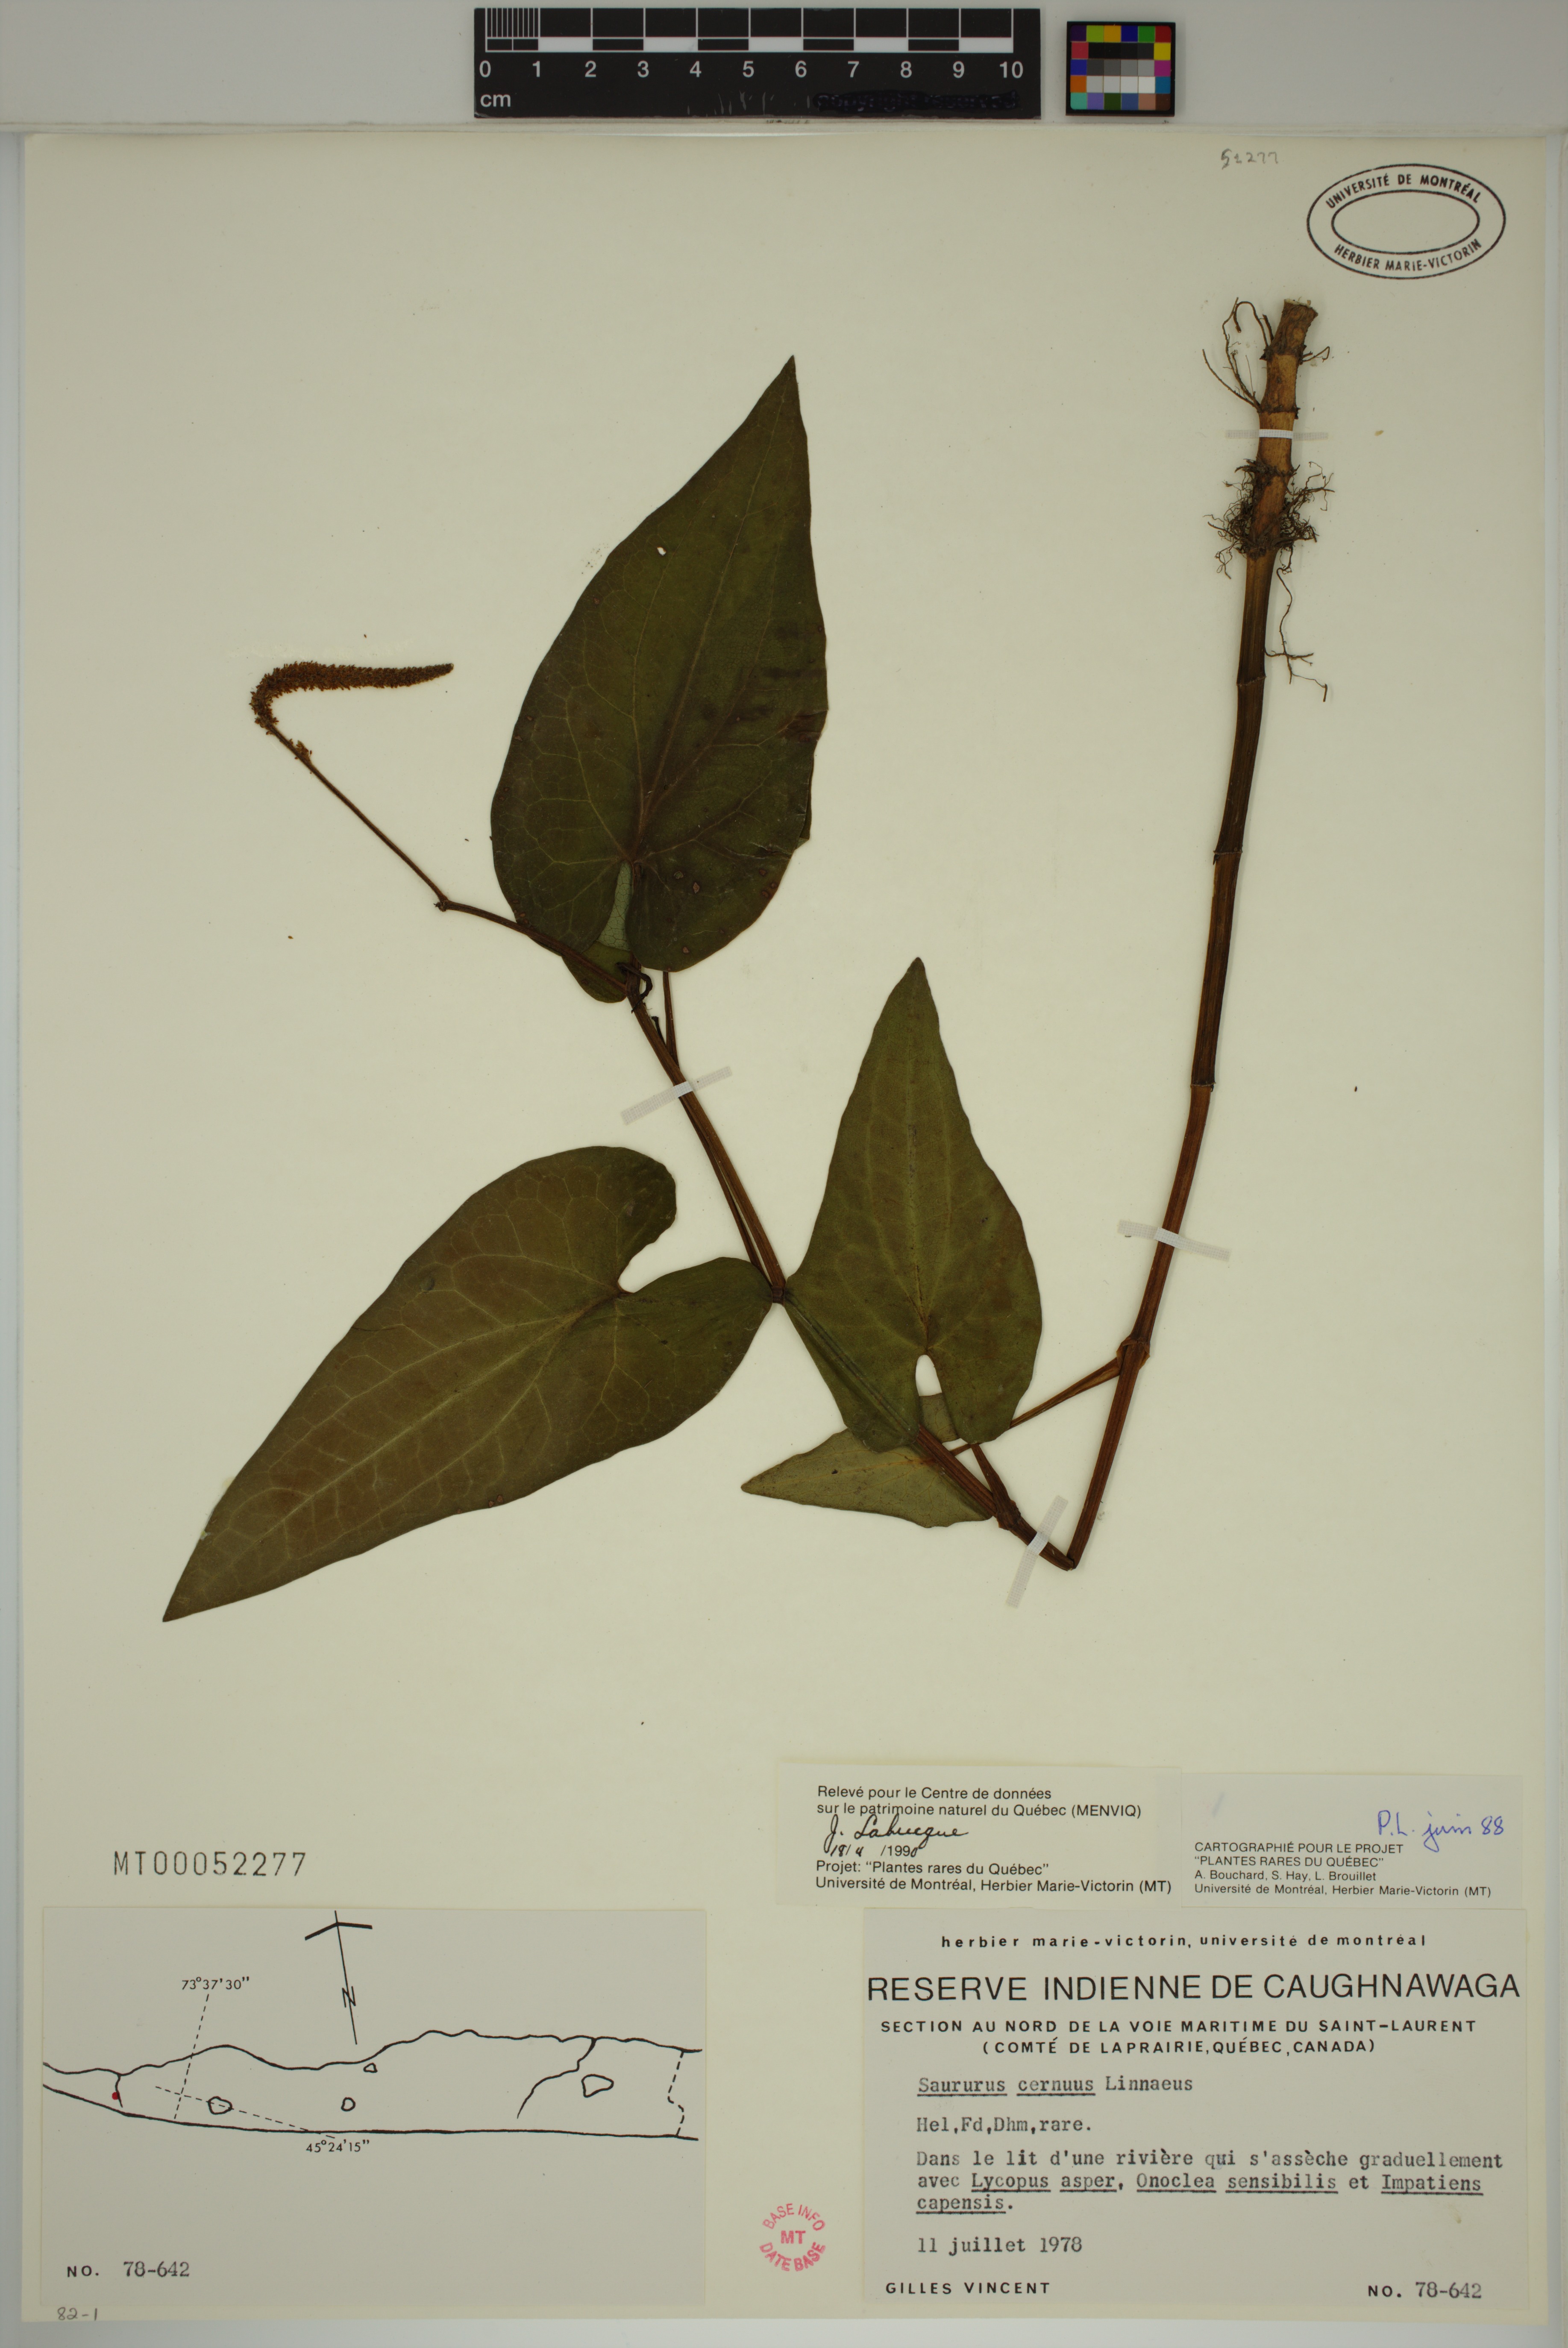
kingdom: Plantae
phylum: Tracheophyta
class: Magnoliopsida
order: Piperales
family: Saururaceae
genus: Saururus
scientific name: Saururus cernuus
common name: Lizard's-tail
